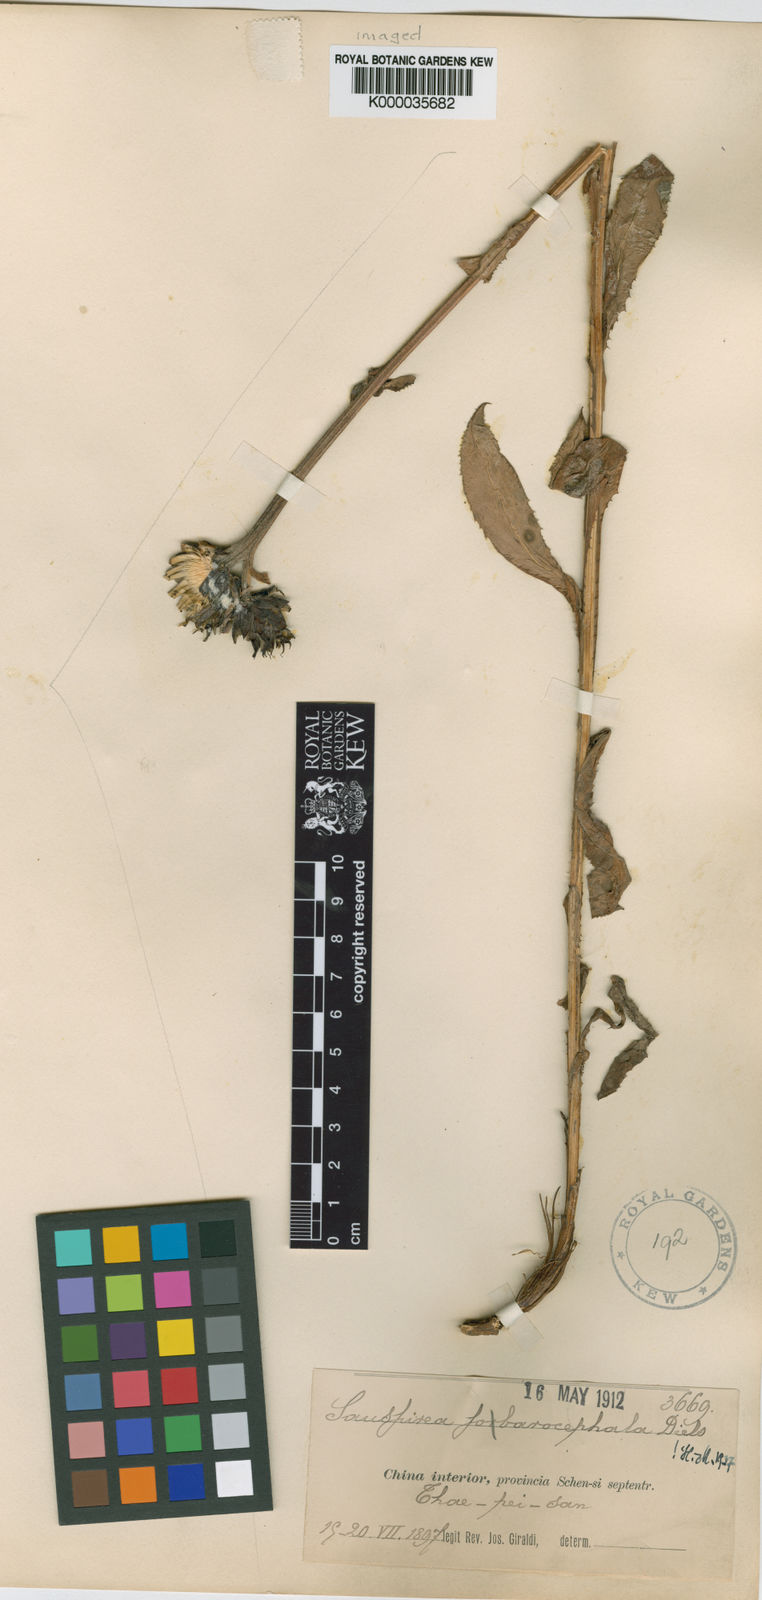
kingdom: Plantae
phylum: Tracheophyta
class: Magnoliopsida
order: Asterales
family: Asteraceae
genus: Saussurea
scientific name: Saussurea sobarocephala
